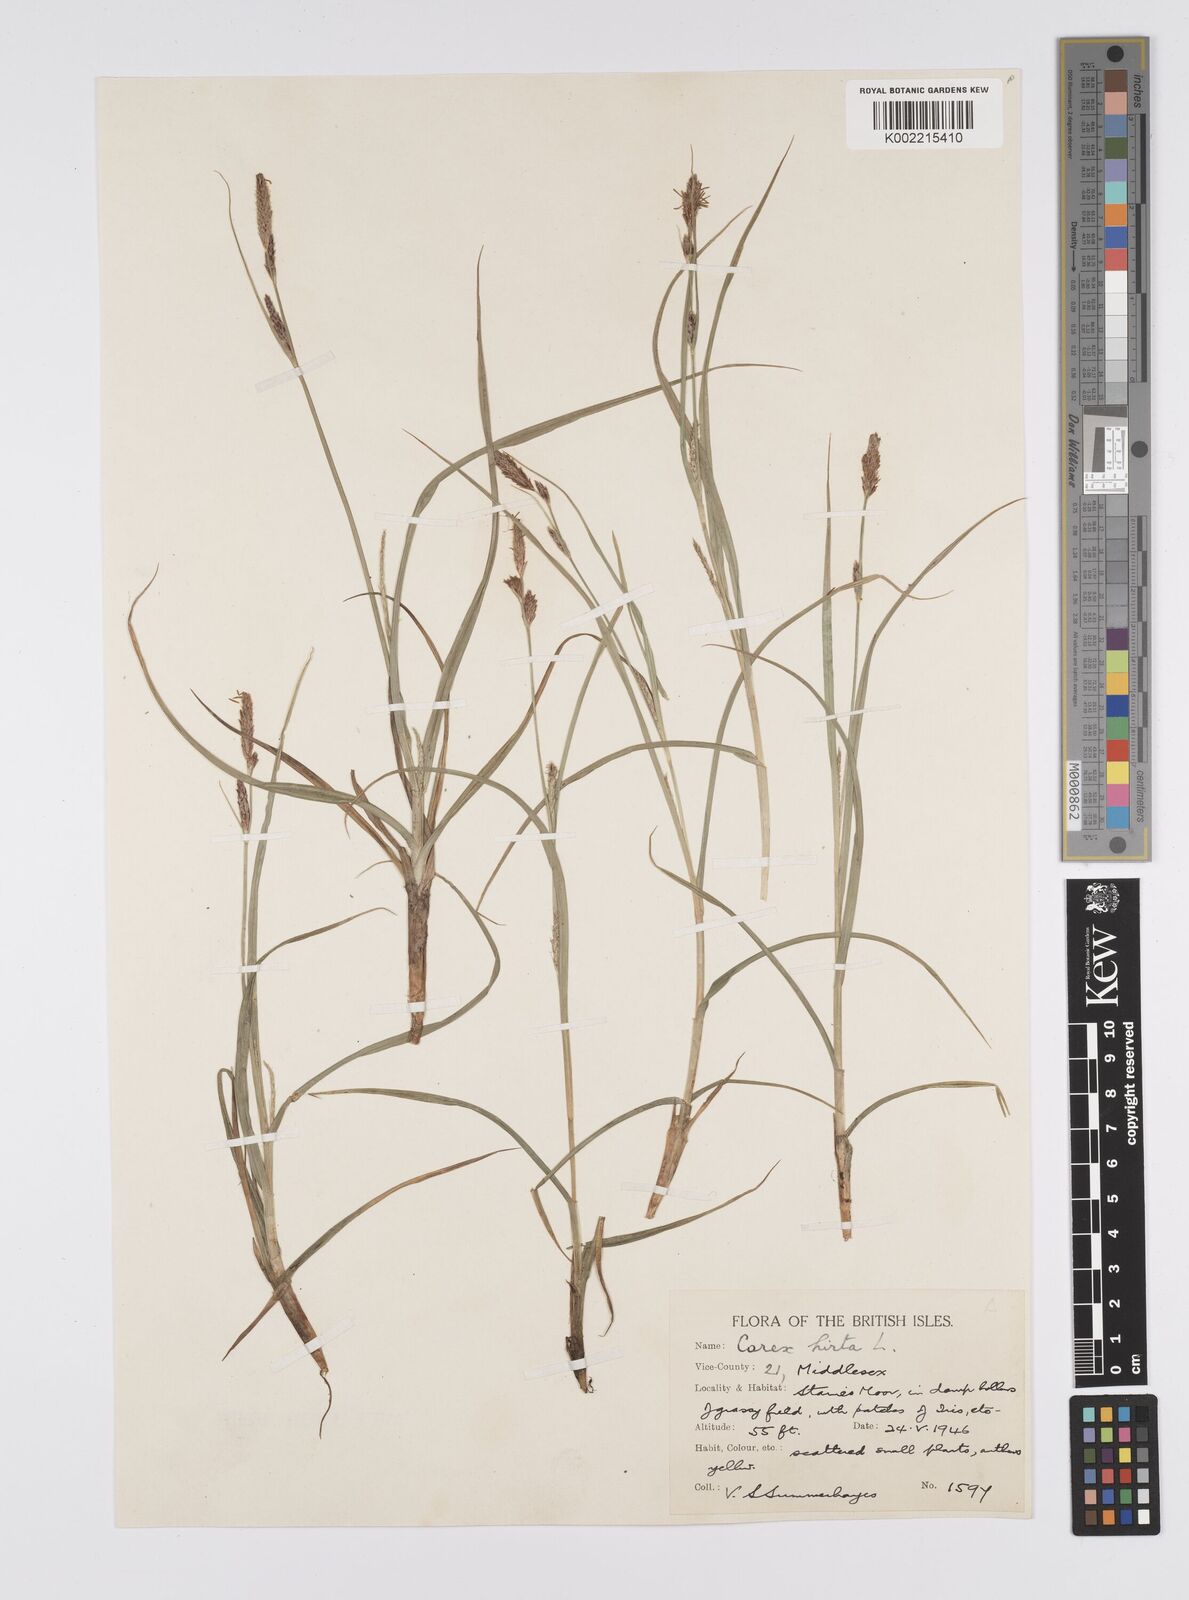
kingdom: Plantae
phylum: Tracheophyta
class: Liliopsida
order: Poales
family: Cyperaceae
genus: Carex
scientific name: Carex hirta
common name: Hairy sedge
